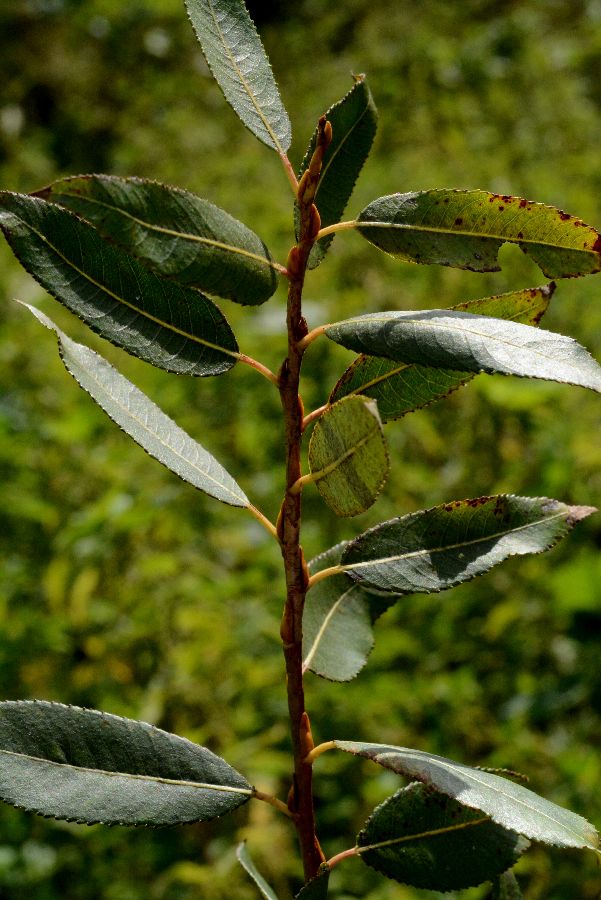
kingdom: Plantae
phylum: Tracheophyta
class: Magnoliopsida
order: Malpighiales
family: Salicaceae
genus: Salix
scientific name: Salix triandra
